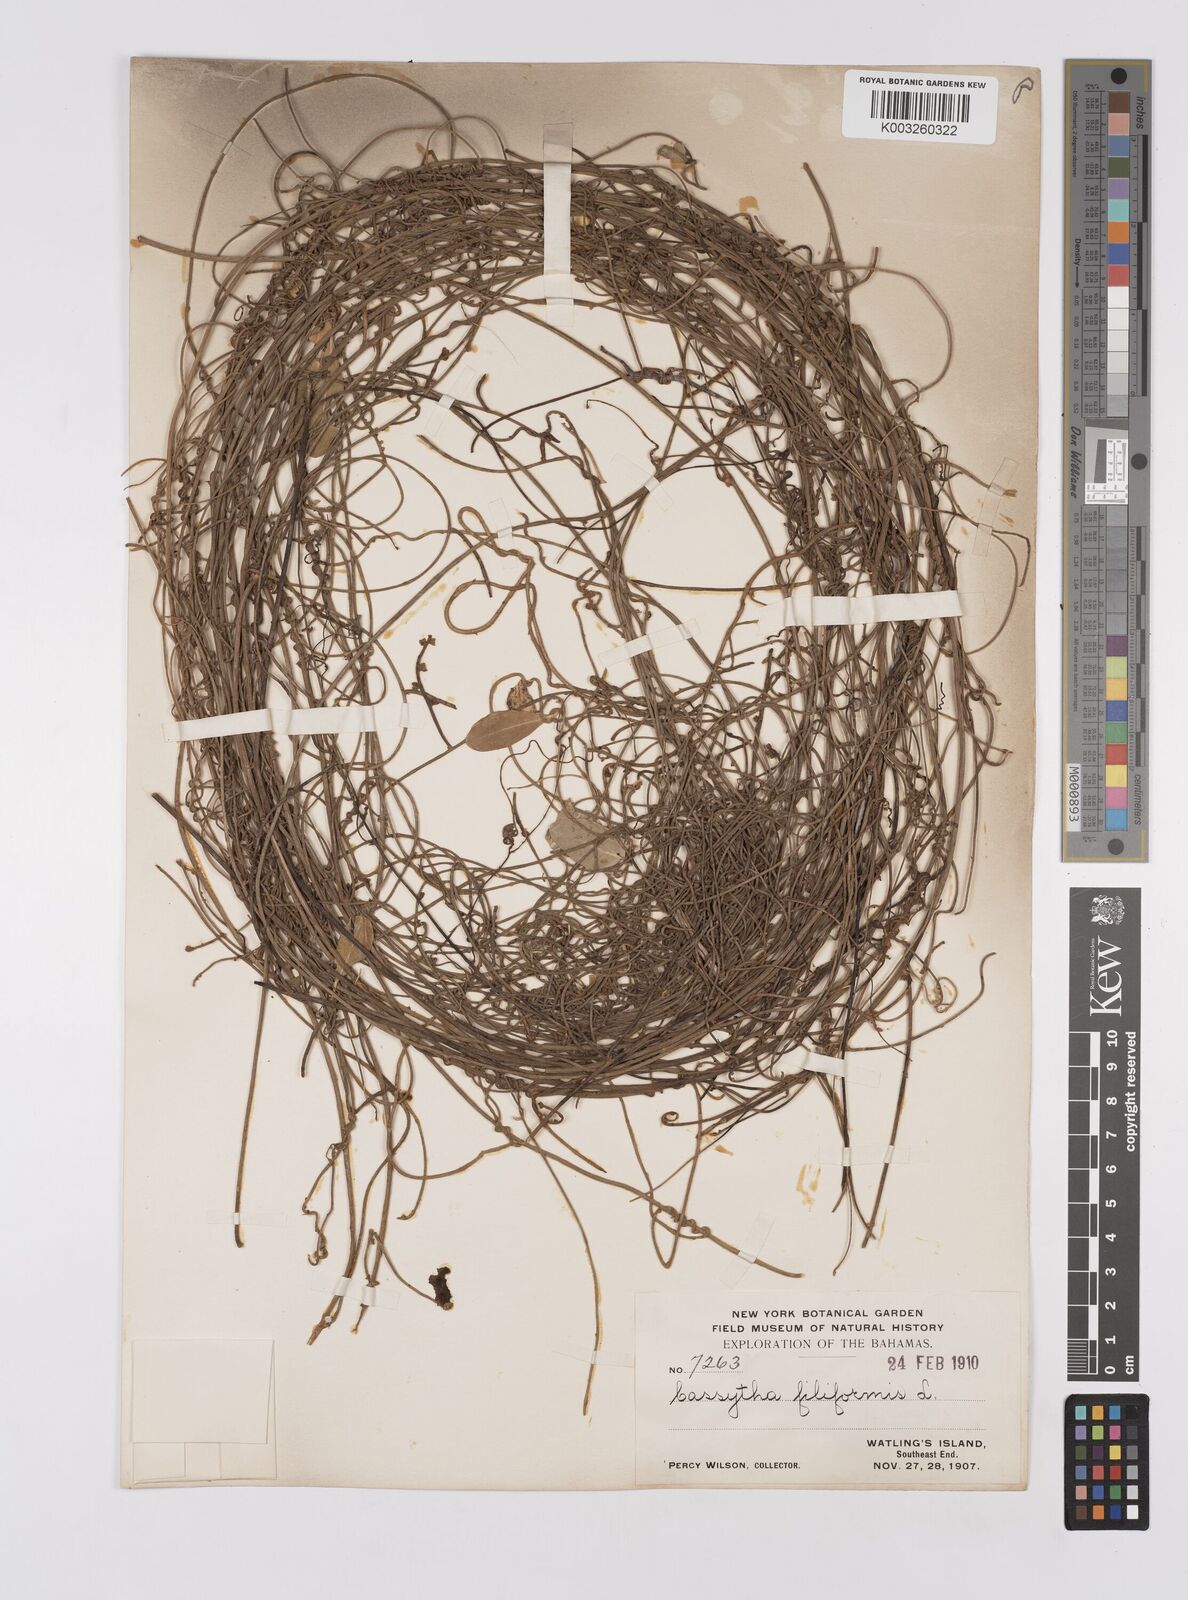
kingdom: Plantae
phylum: Tracheophyta
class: Magnoliopsida
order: Laurales
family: Lauraceae
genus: Cassytha
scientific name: Cassytha filiformis
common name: Dodder-laurel
